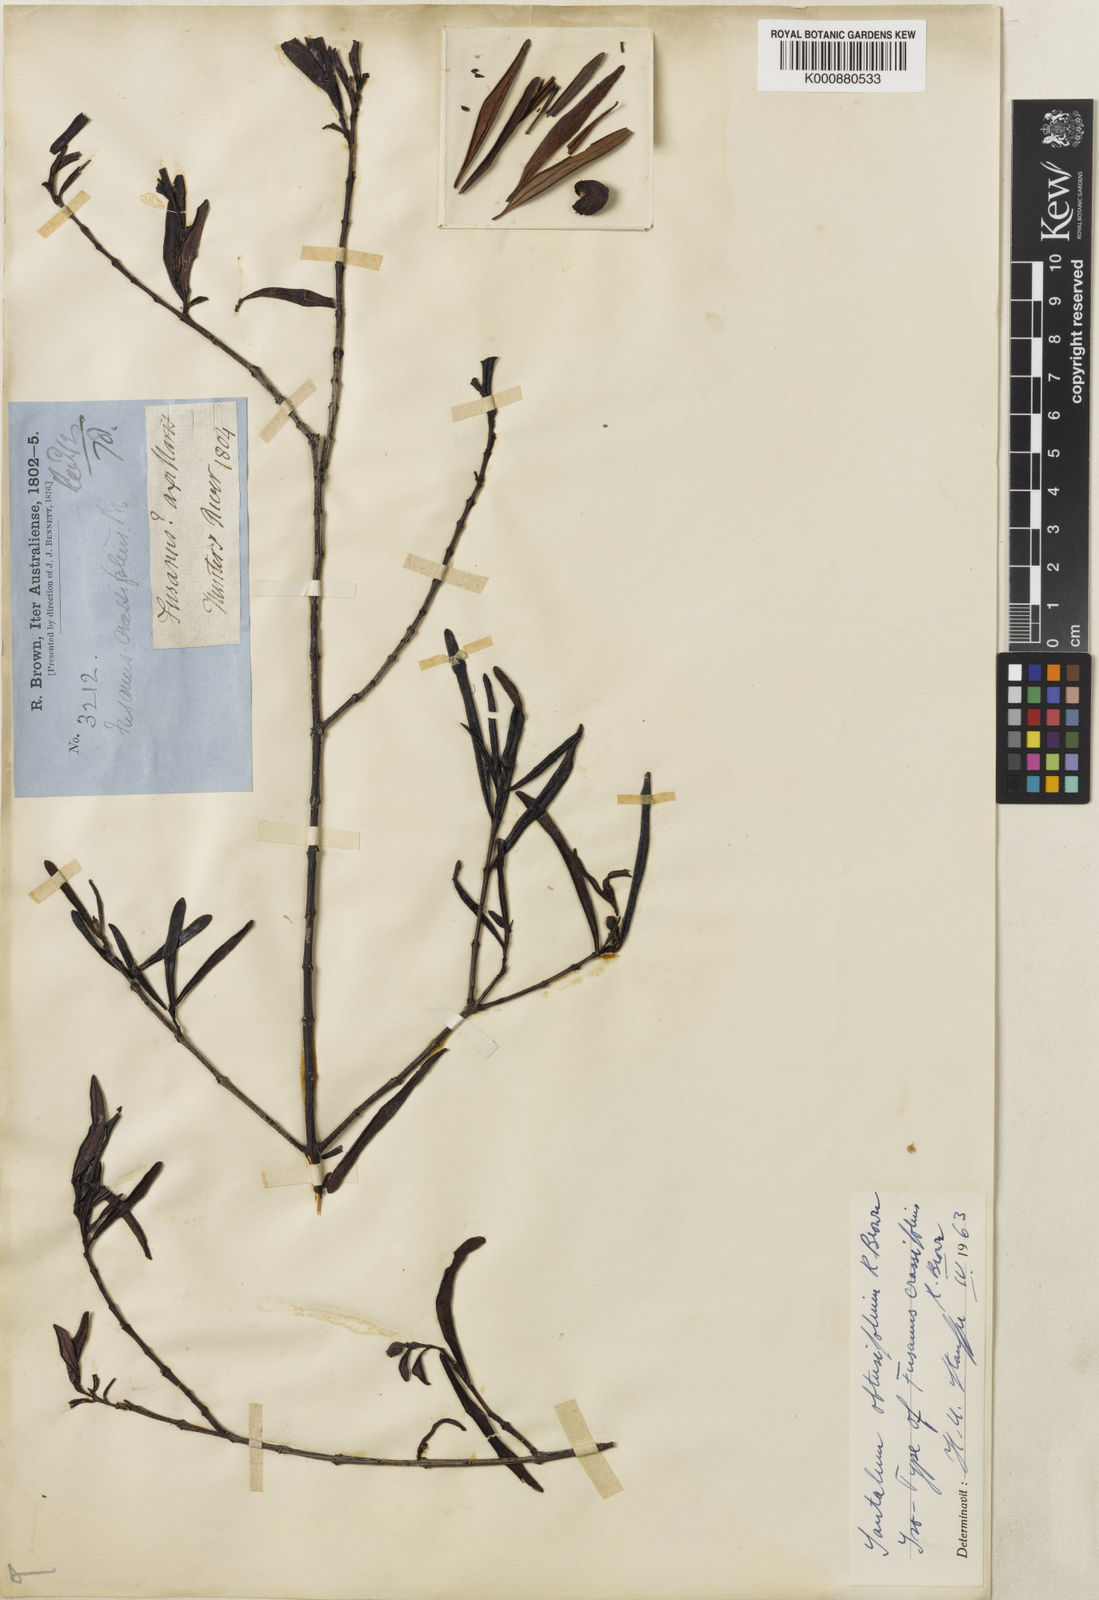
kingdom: Plantae
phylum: Tracheophyta
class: Magnoliopsida
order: Santalales
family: Santalaceae
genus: Santalum
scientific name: Santalum obtusifolium
